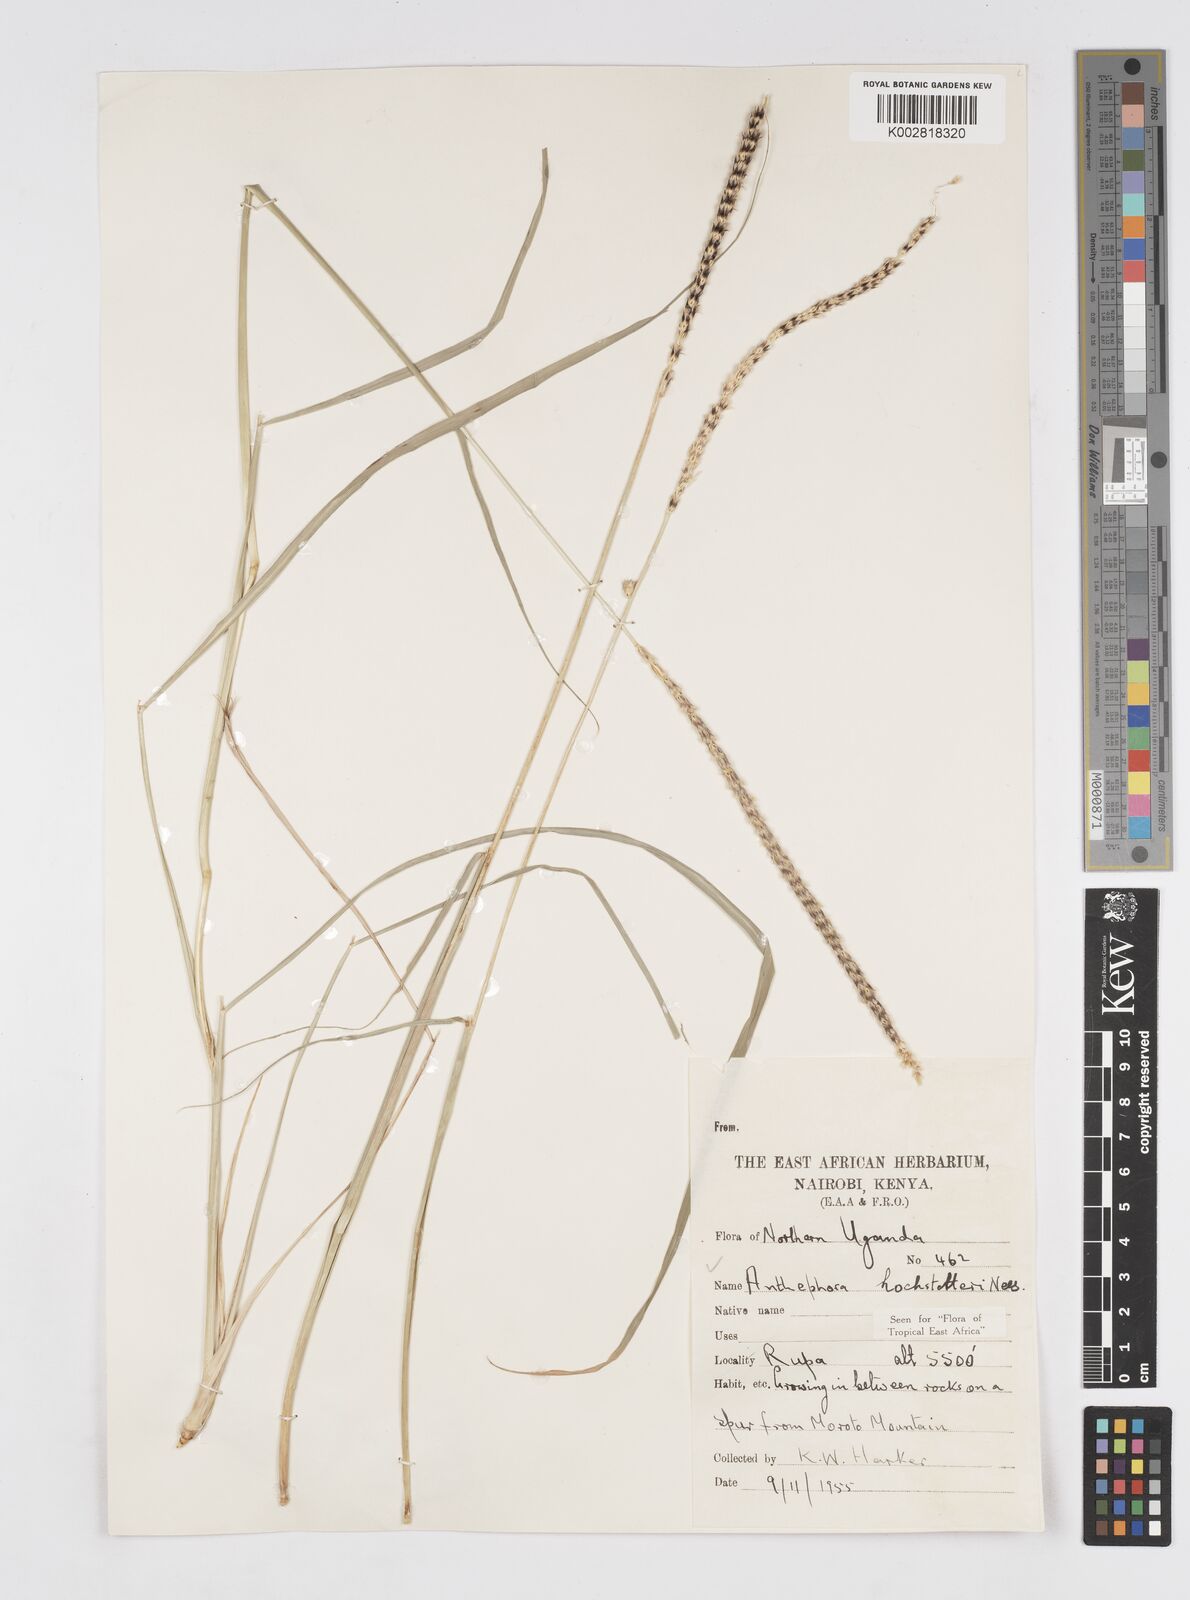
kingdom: Plantae
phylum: Tracheophyta
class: Liliopsida
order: Poales
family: Poaceae
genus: Anthephora
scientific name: Anthephora pubescens
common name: Wool grass
